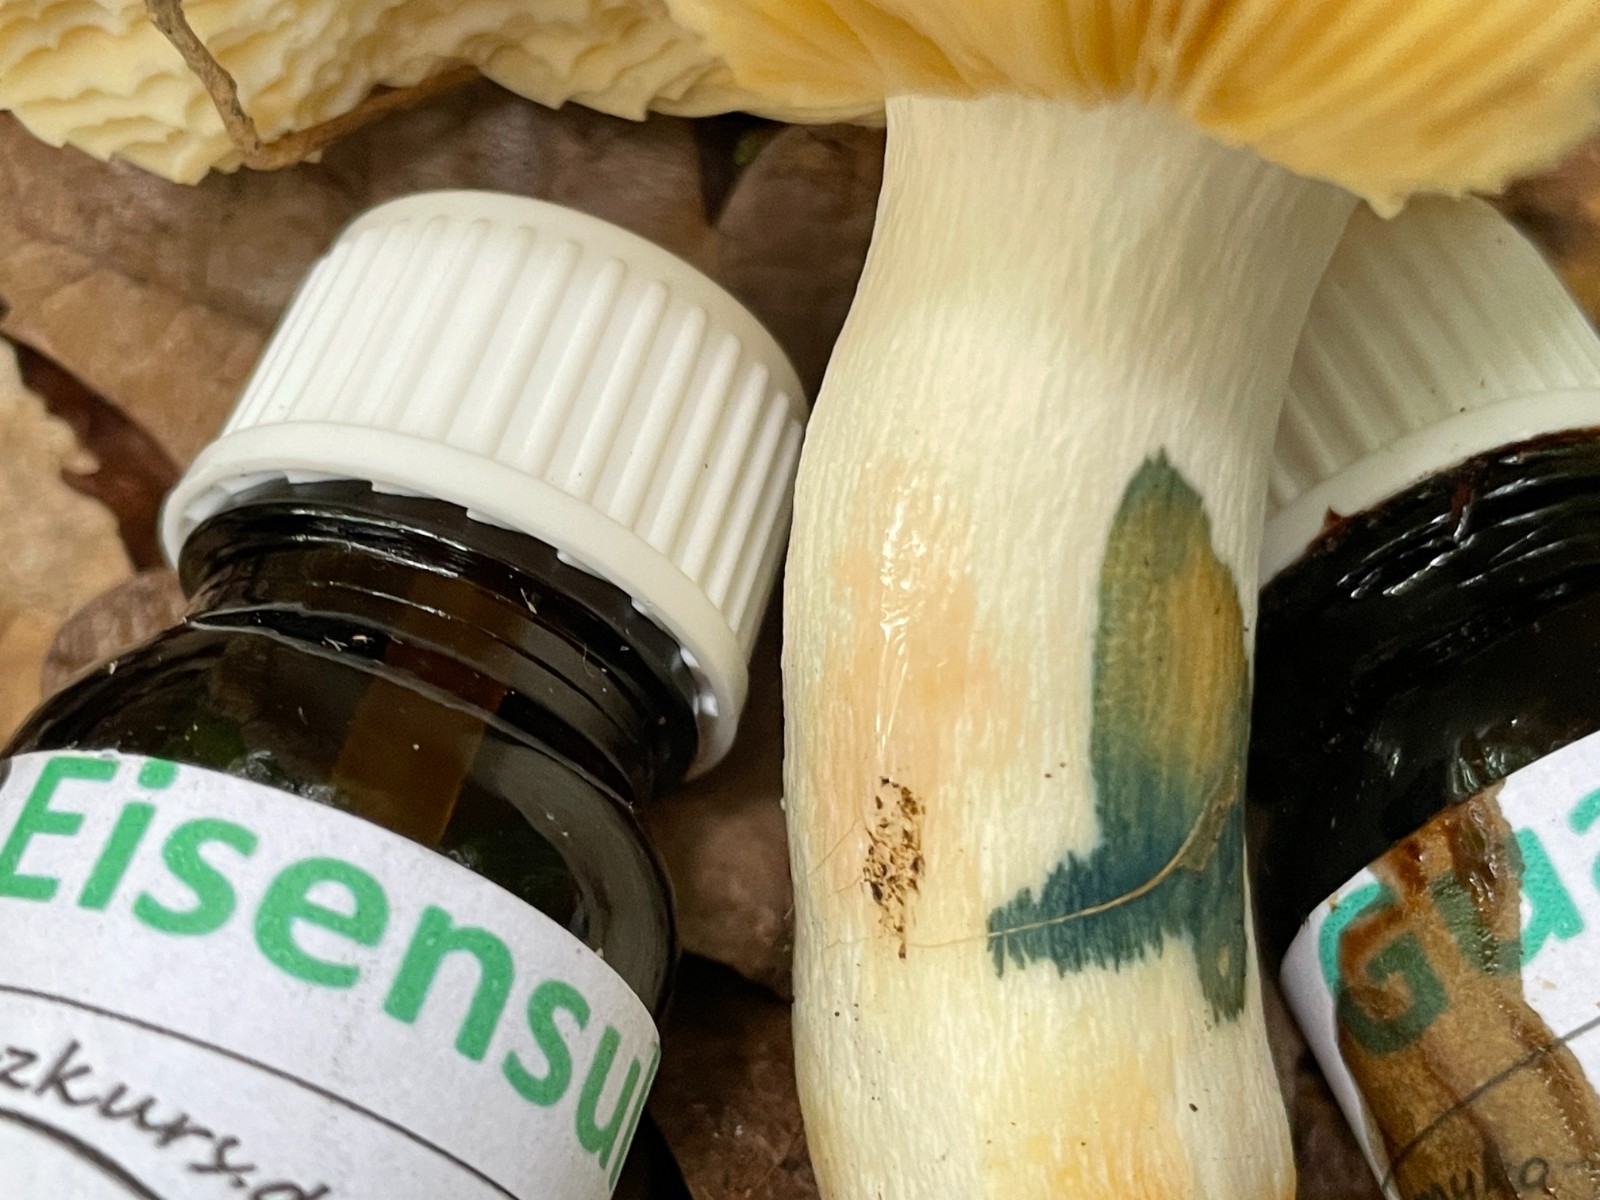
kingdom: Fungi
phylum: Basidiomycota
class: Agaricomycetes
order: Russulales
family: Russulaceae
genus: Russula
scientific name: Russula
